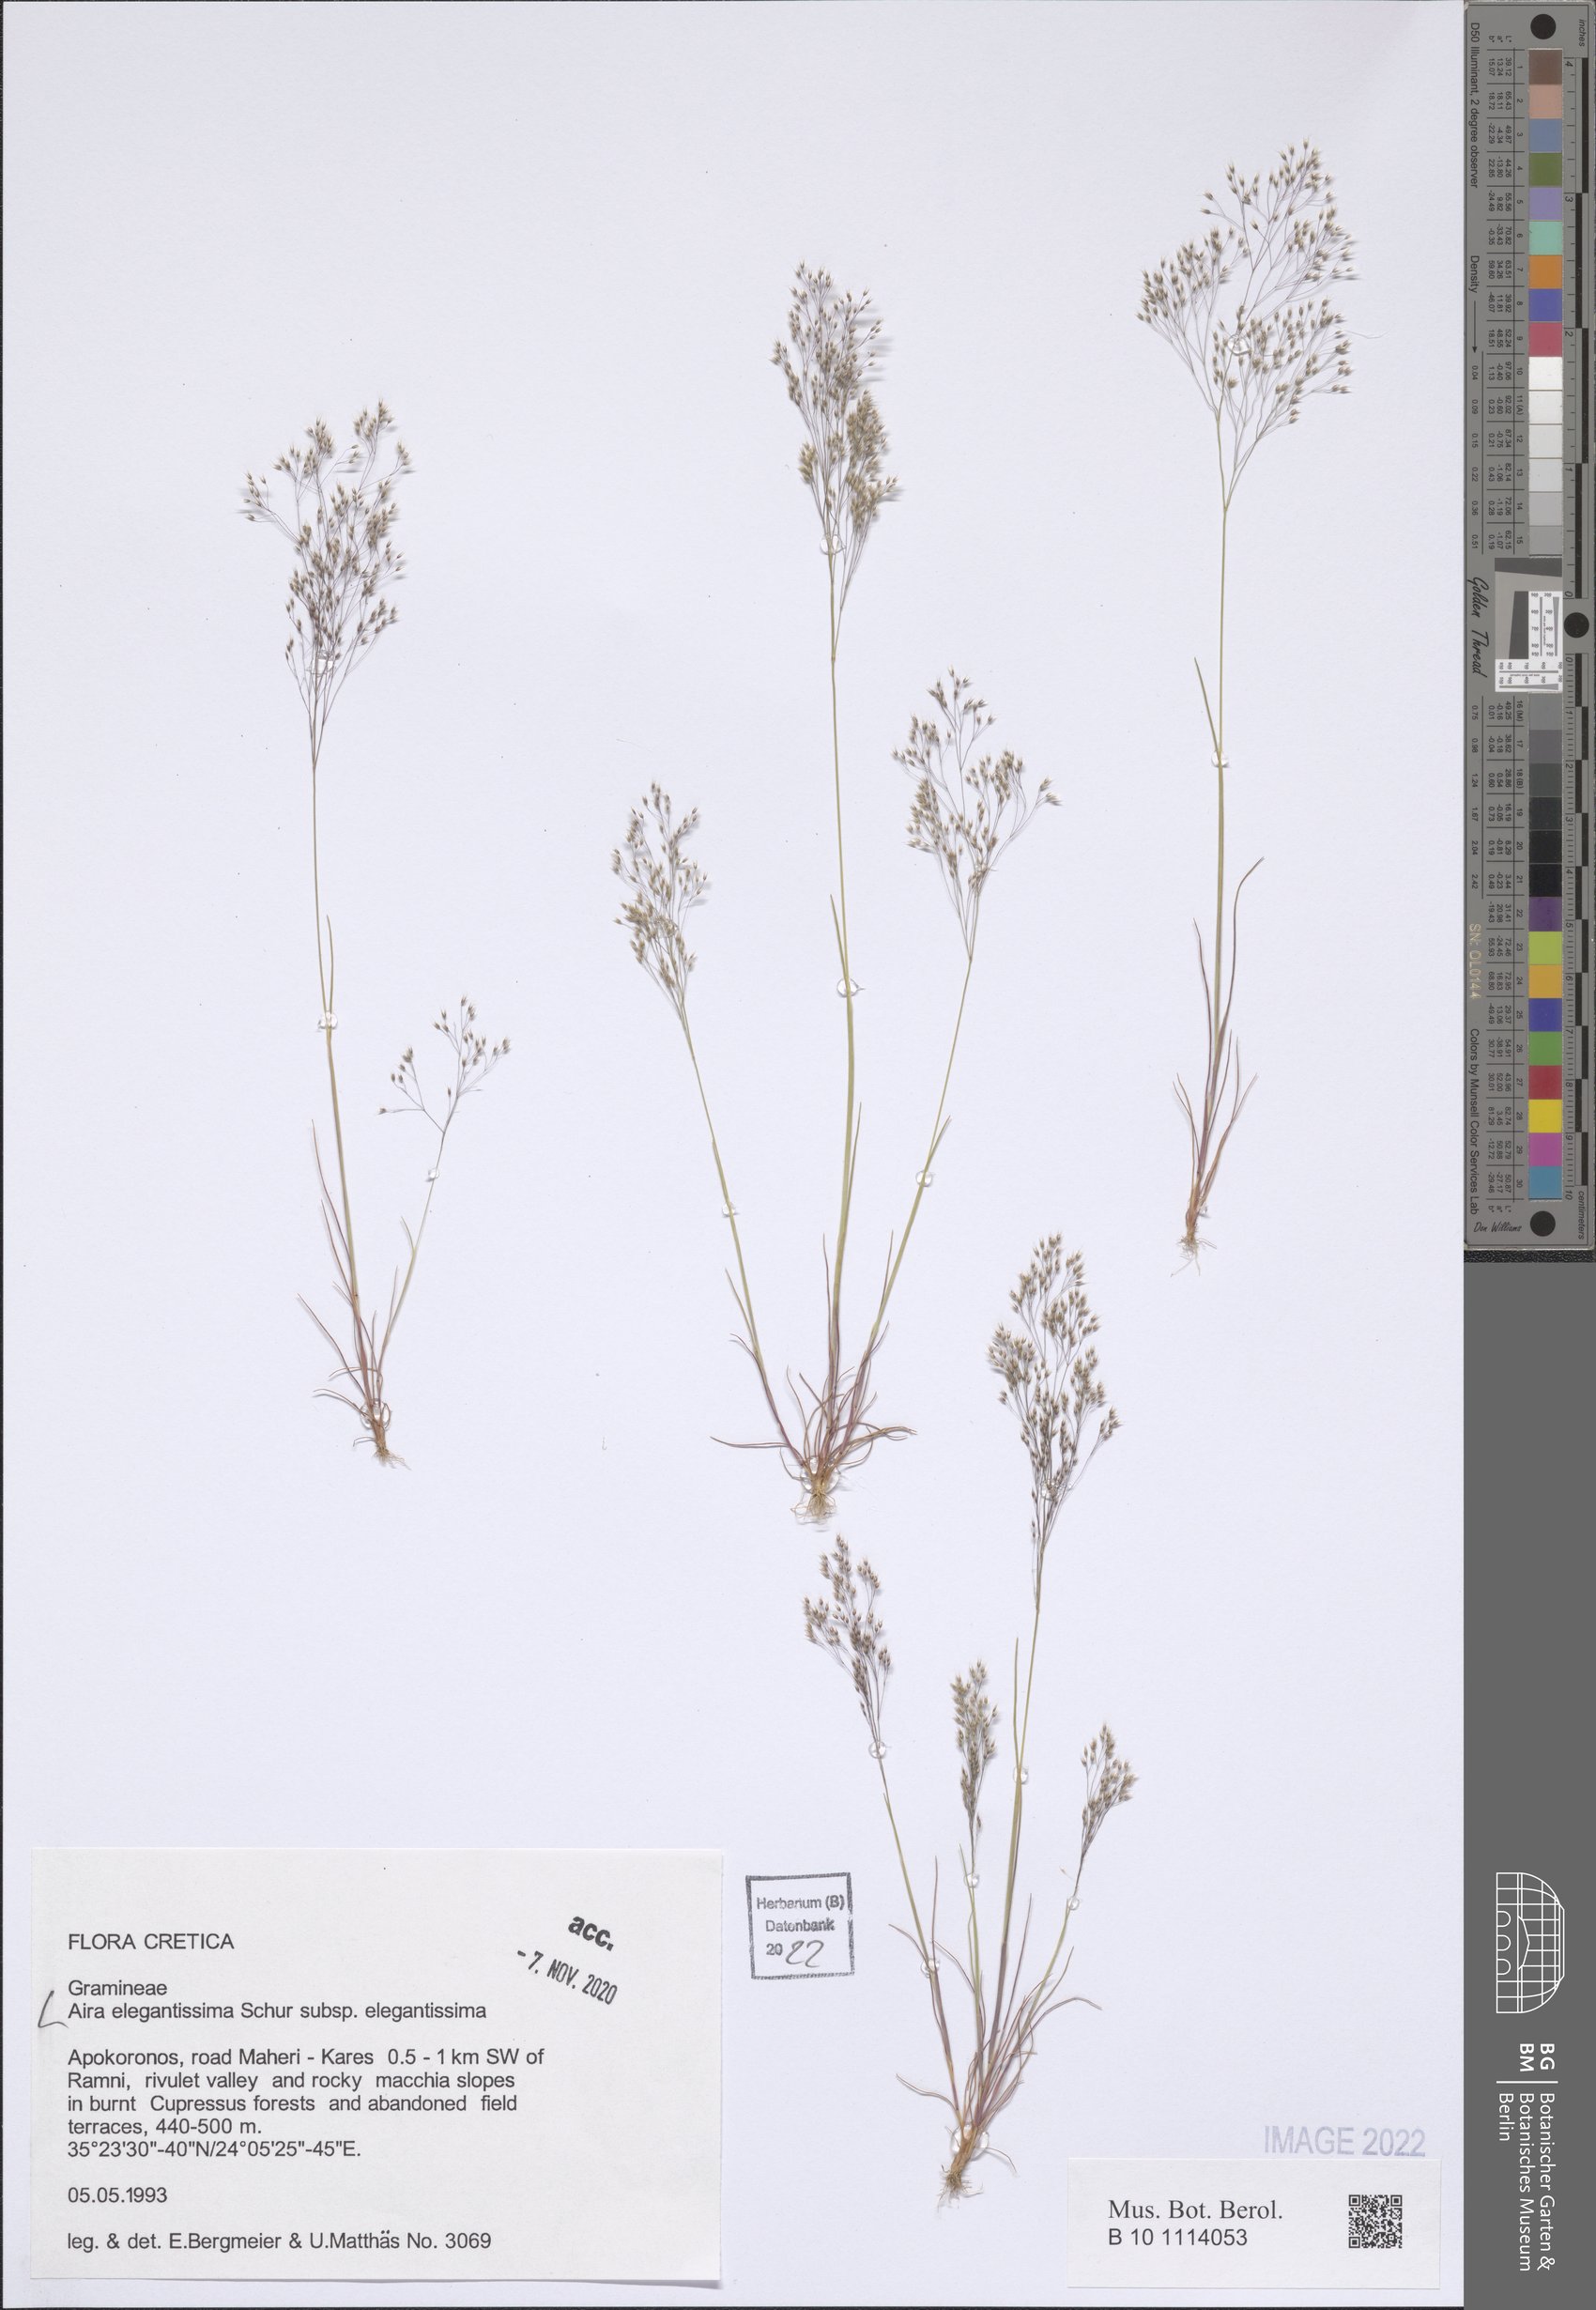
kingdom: Plantae
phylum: Tracheophyta
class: Liliopsida
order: Poales
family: Poaceae
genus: Aira
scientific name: Aira elegans
